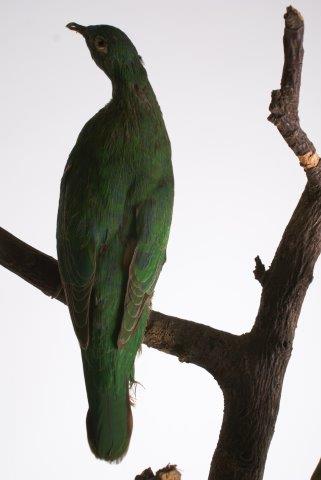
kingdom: Animalia
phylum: Chordata
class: Aves
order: Columbiformes
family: Columbidae
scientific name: Columbidae
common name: Zwartnekjufferduif
